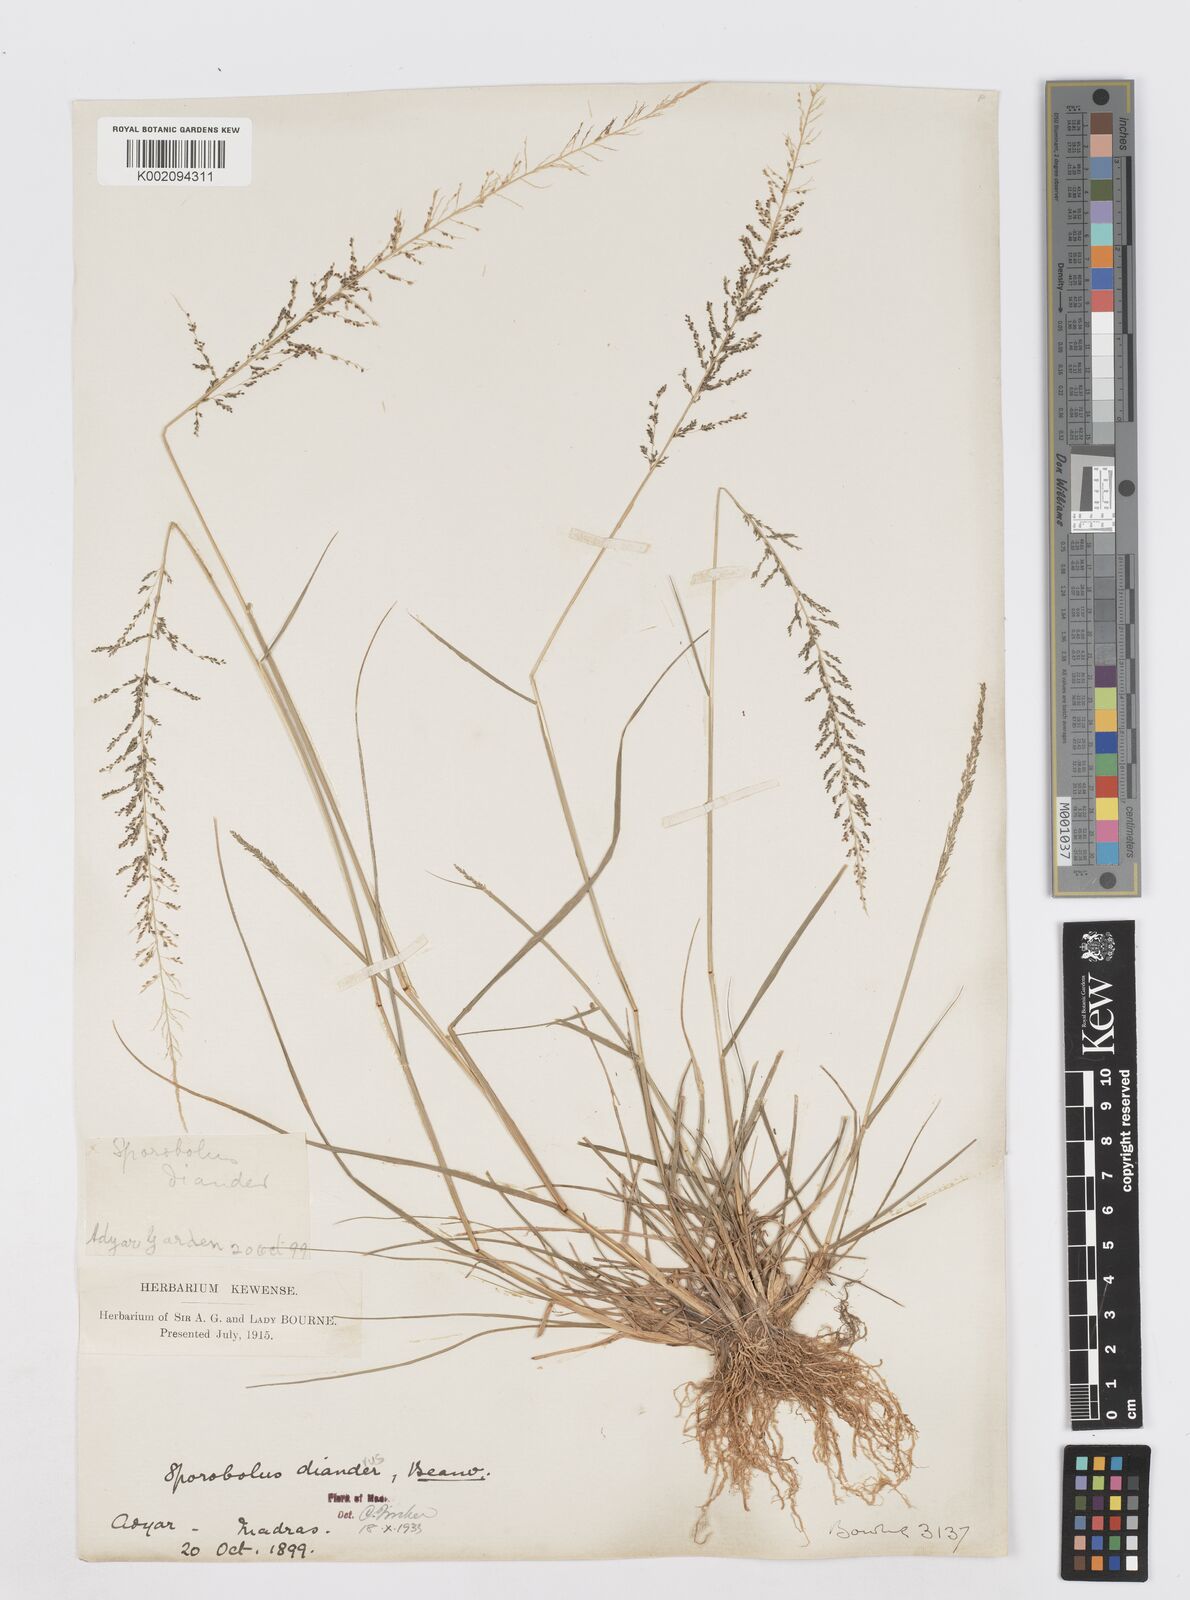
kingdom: Plantae
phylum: Tracheophyta
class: Liliopsida
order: Poales
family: Poaceae
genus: Sporobolus
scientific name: Sporobolus diandrus
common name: Tussock dropseed
